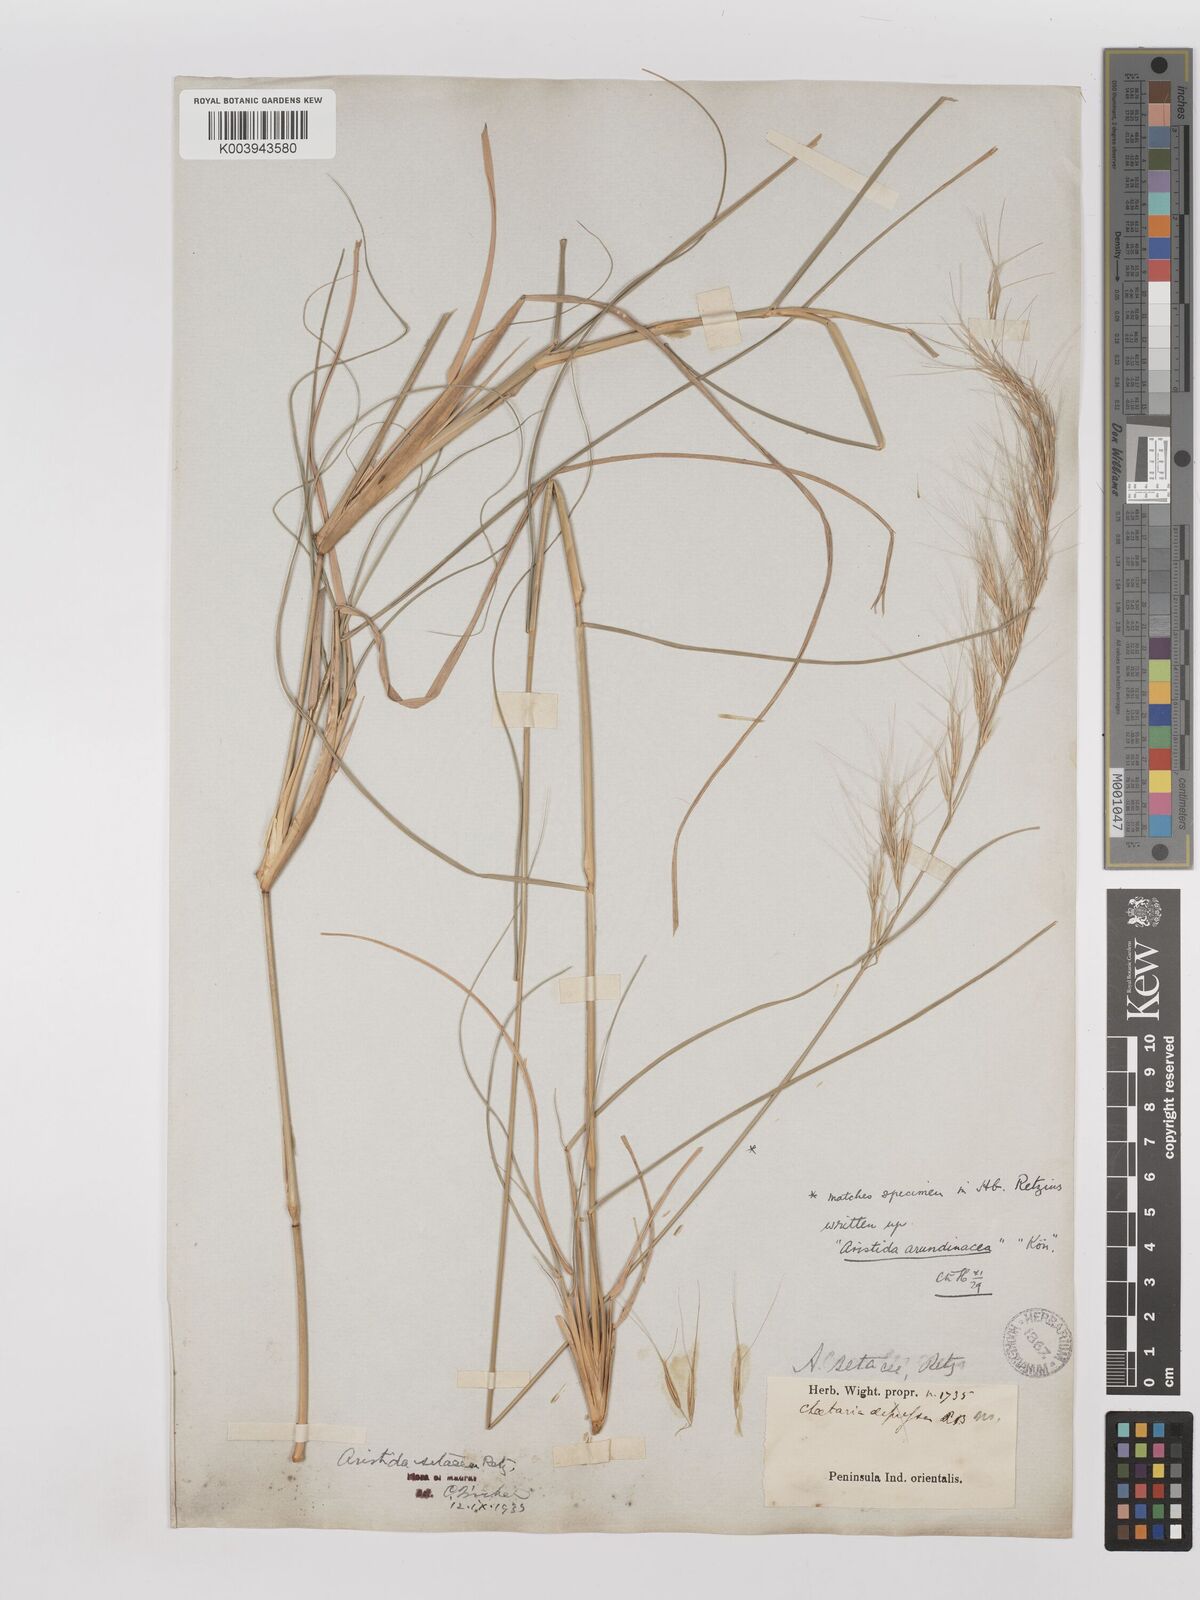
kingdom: Plantae
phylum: Tracheophyta
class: Liliopsida
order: Poales
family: Poaceae
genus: Aristida
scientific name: Aristida setacea
